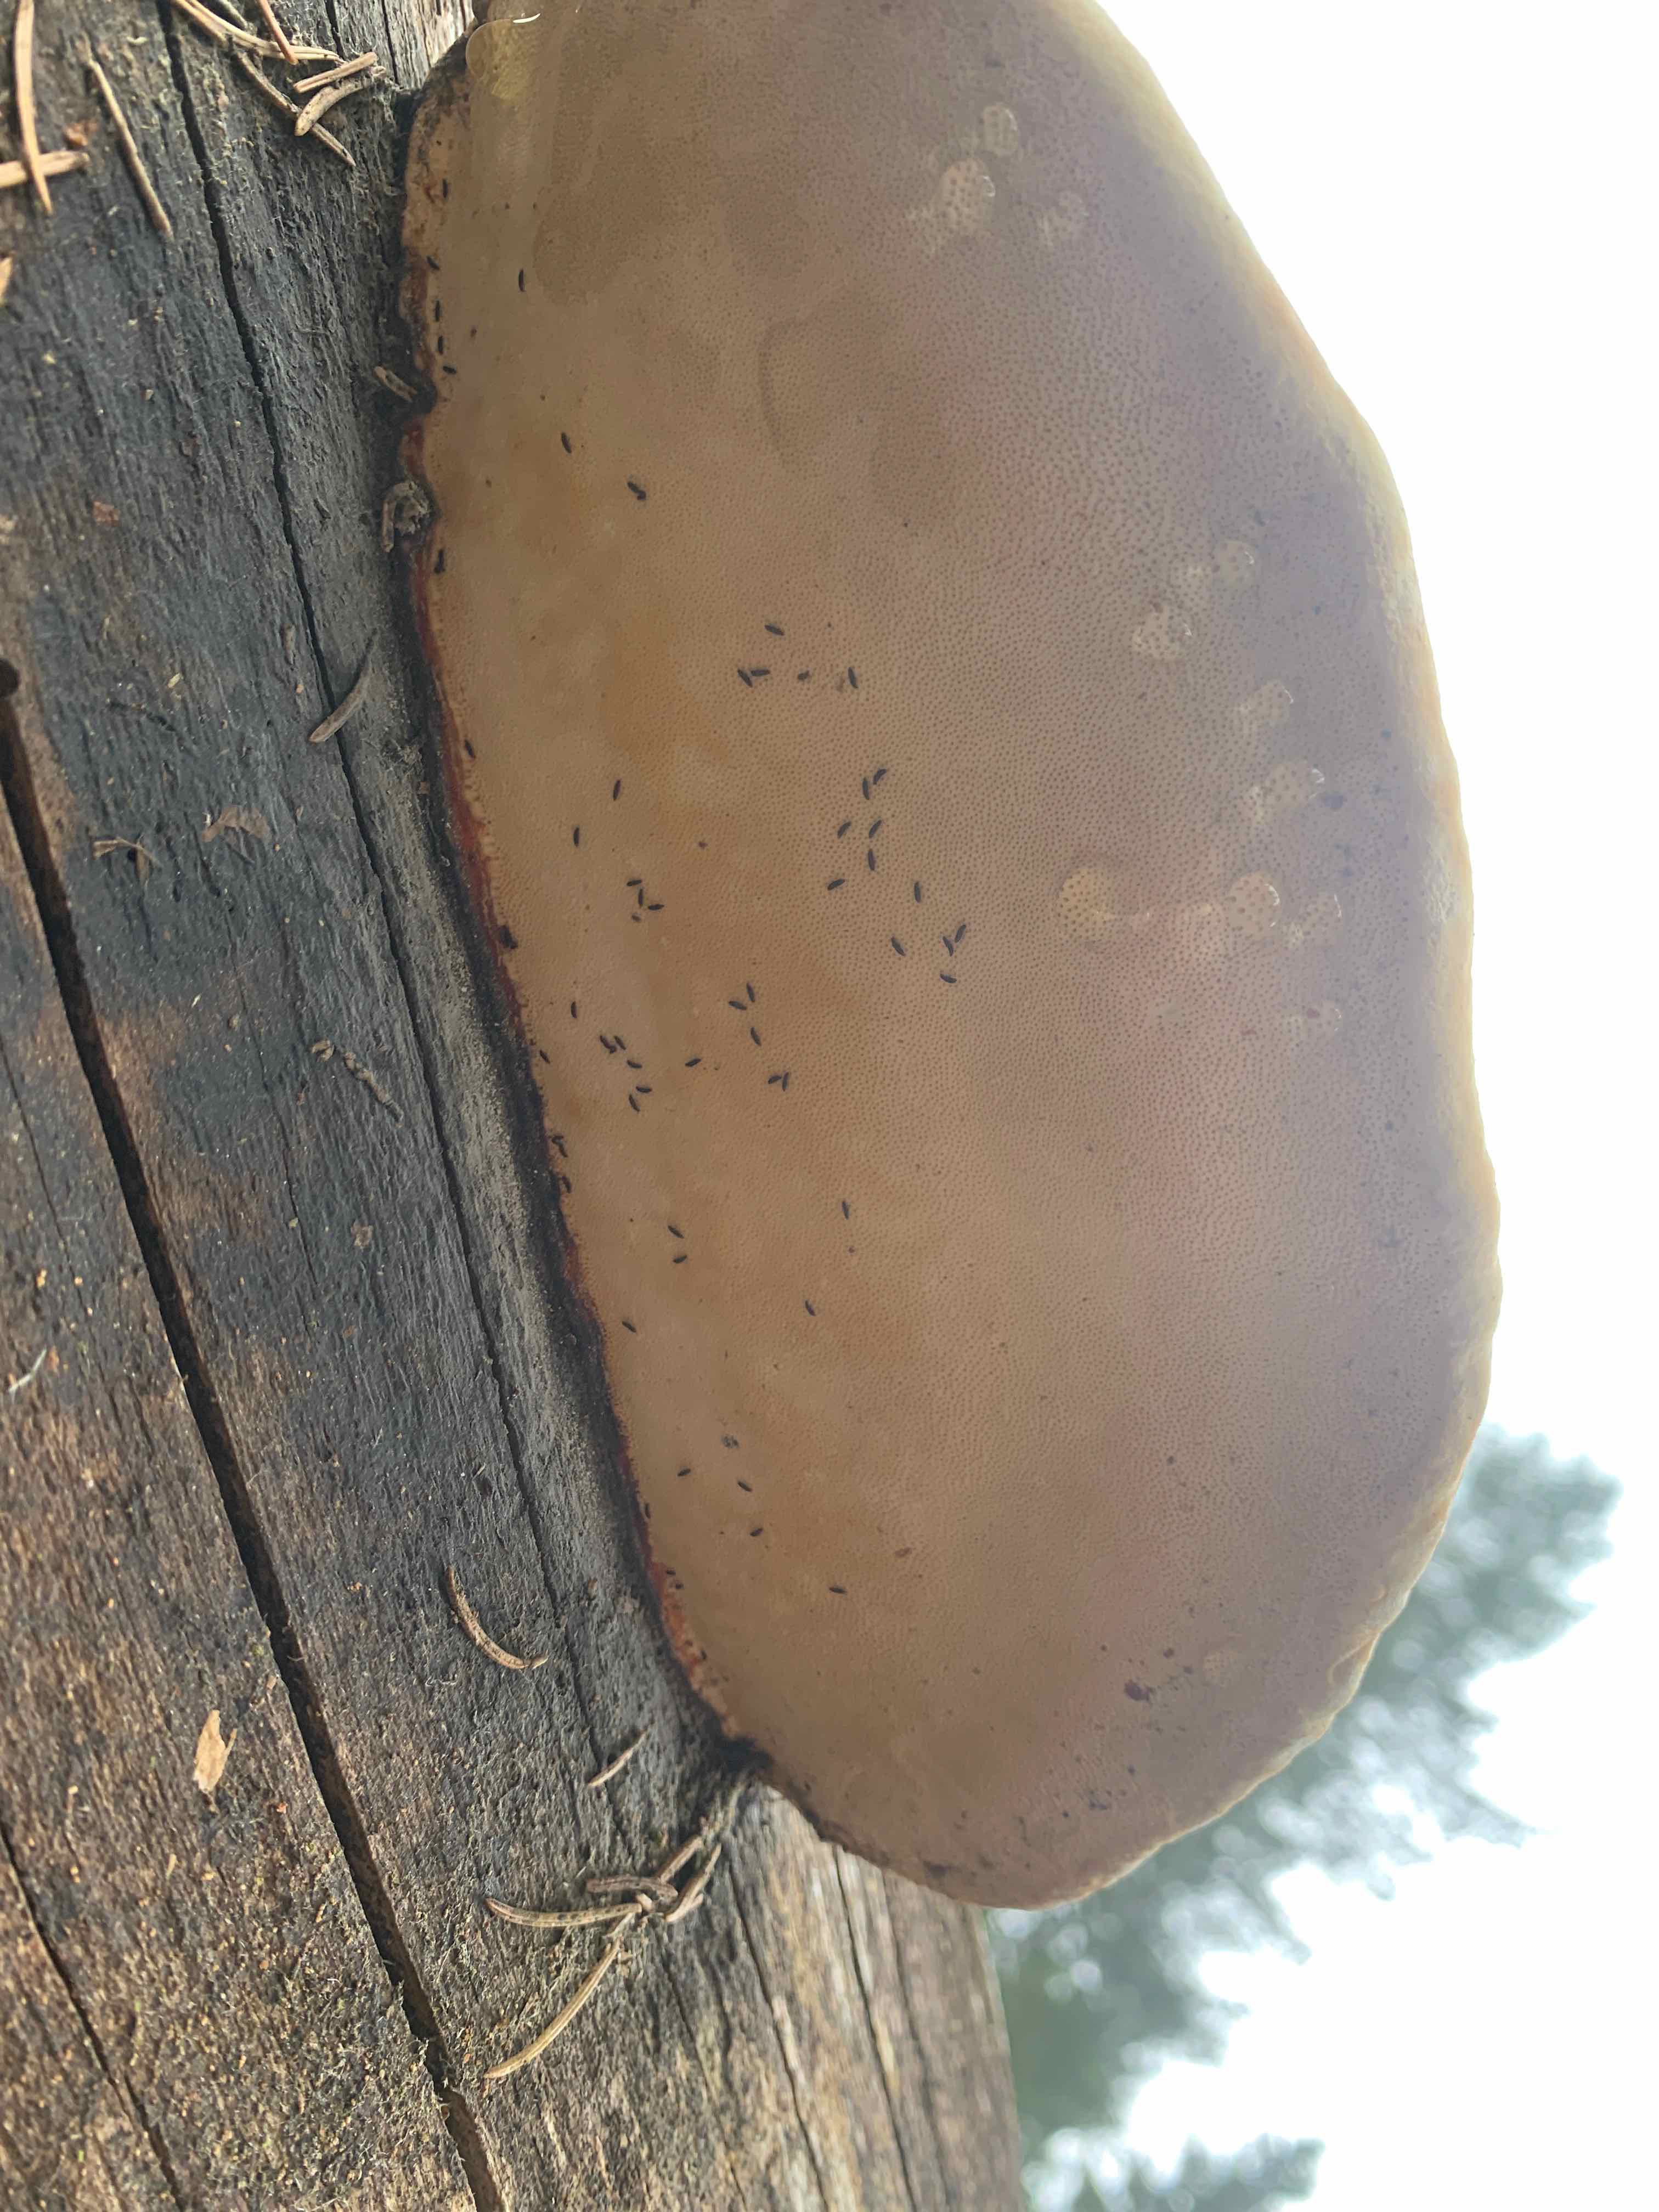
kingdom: Fungi
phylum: Basidiomycota
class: Agaricomycetes
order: Polyporales
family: Fomitopsidaceae
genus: Fomitopsis
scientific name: Fomitopsis pinicola
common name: randbæltet hovporesvamp
